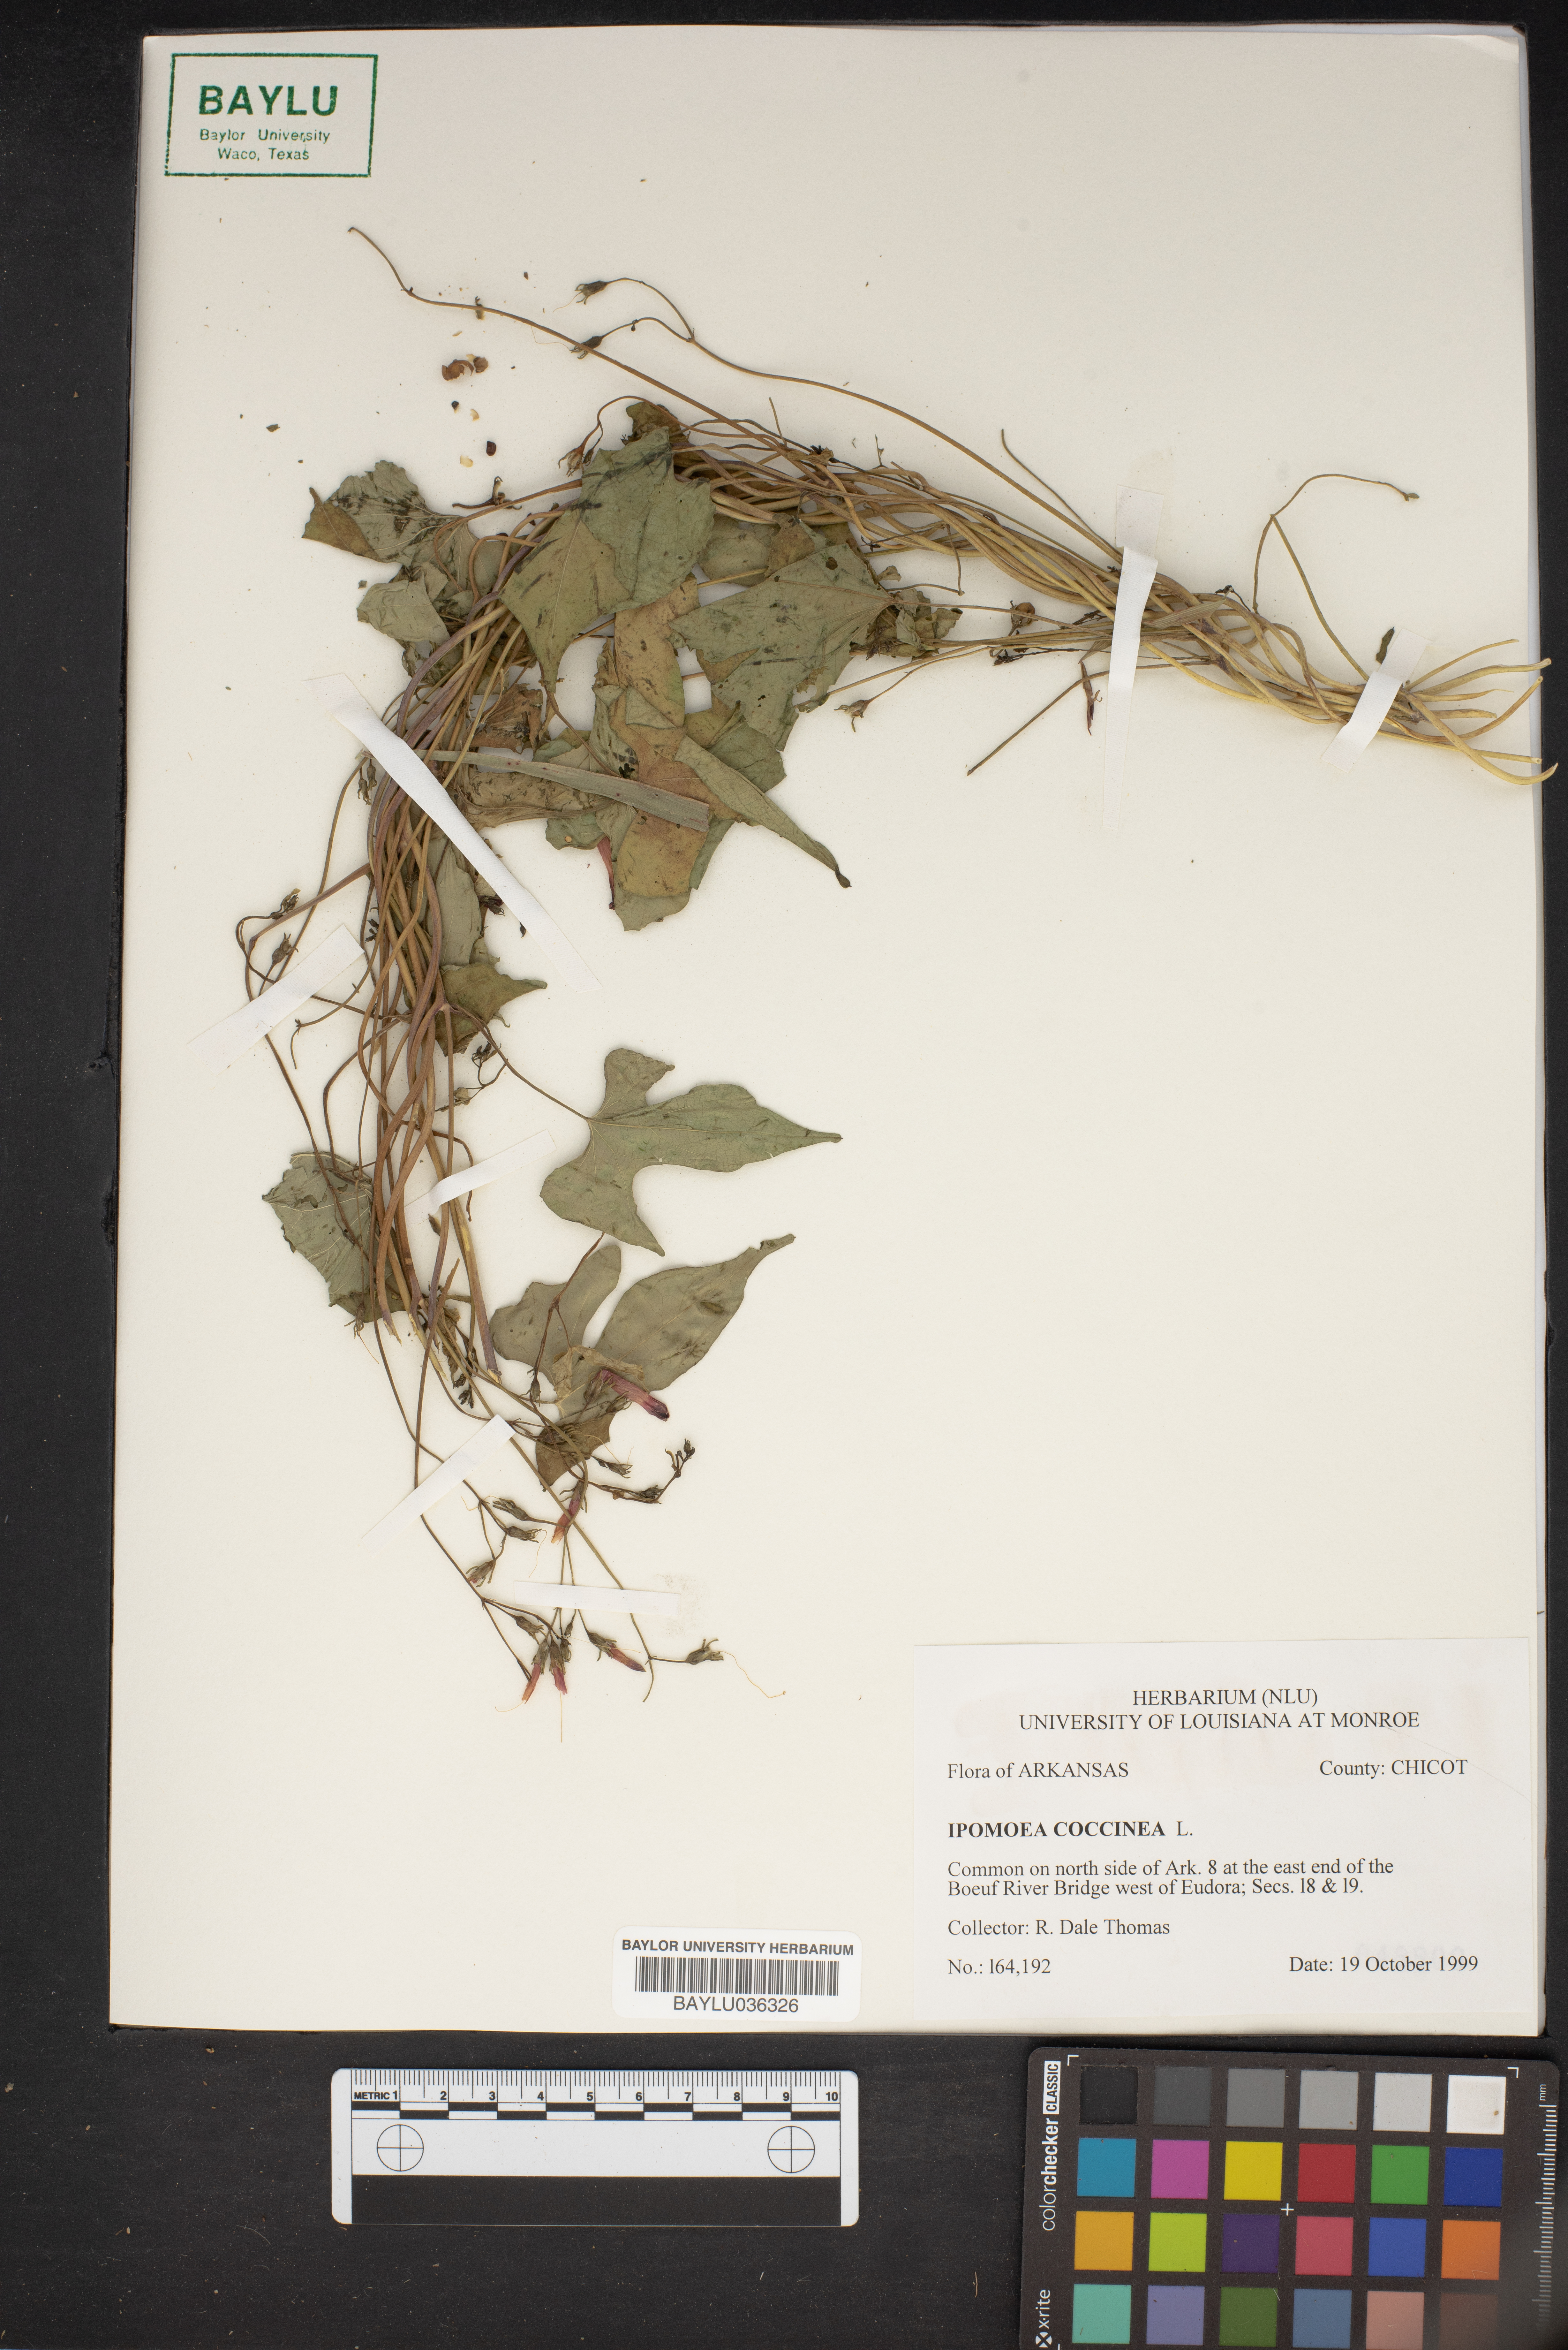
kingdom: Plantae
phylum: Tracheophyta
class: Magnoliopsida
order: Solanales
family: Convolvulaceae
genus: Ipomoea
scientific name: Ipomoea coccinea
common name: Red morning-glory
